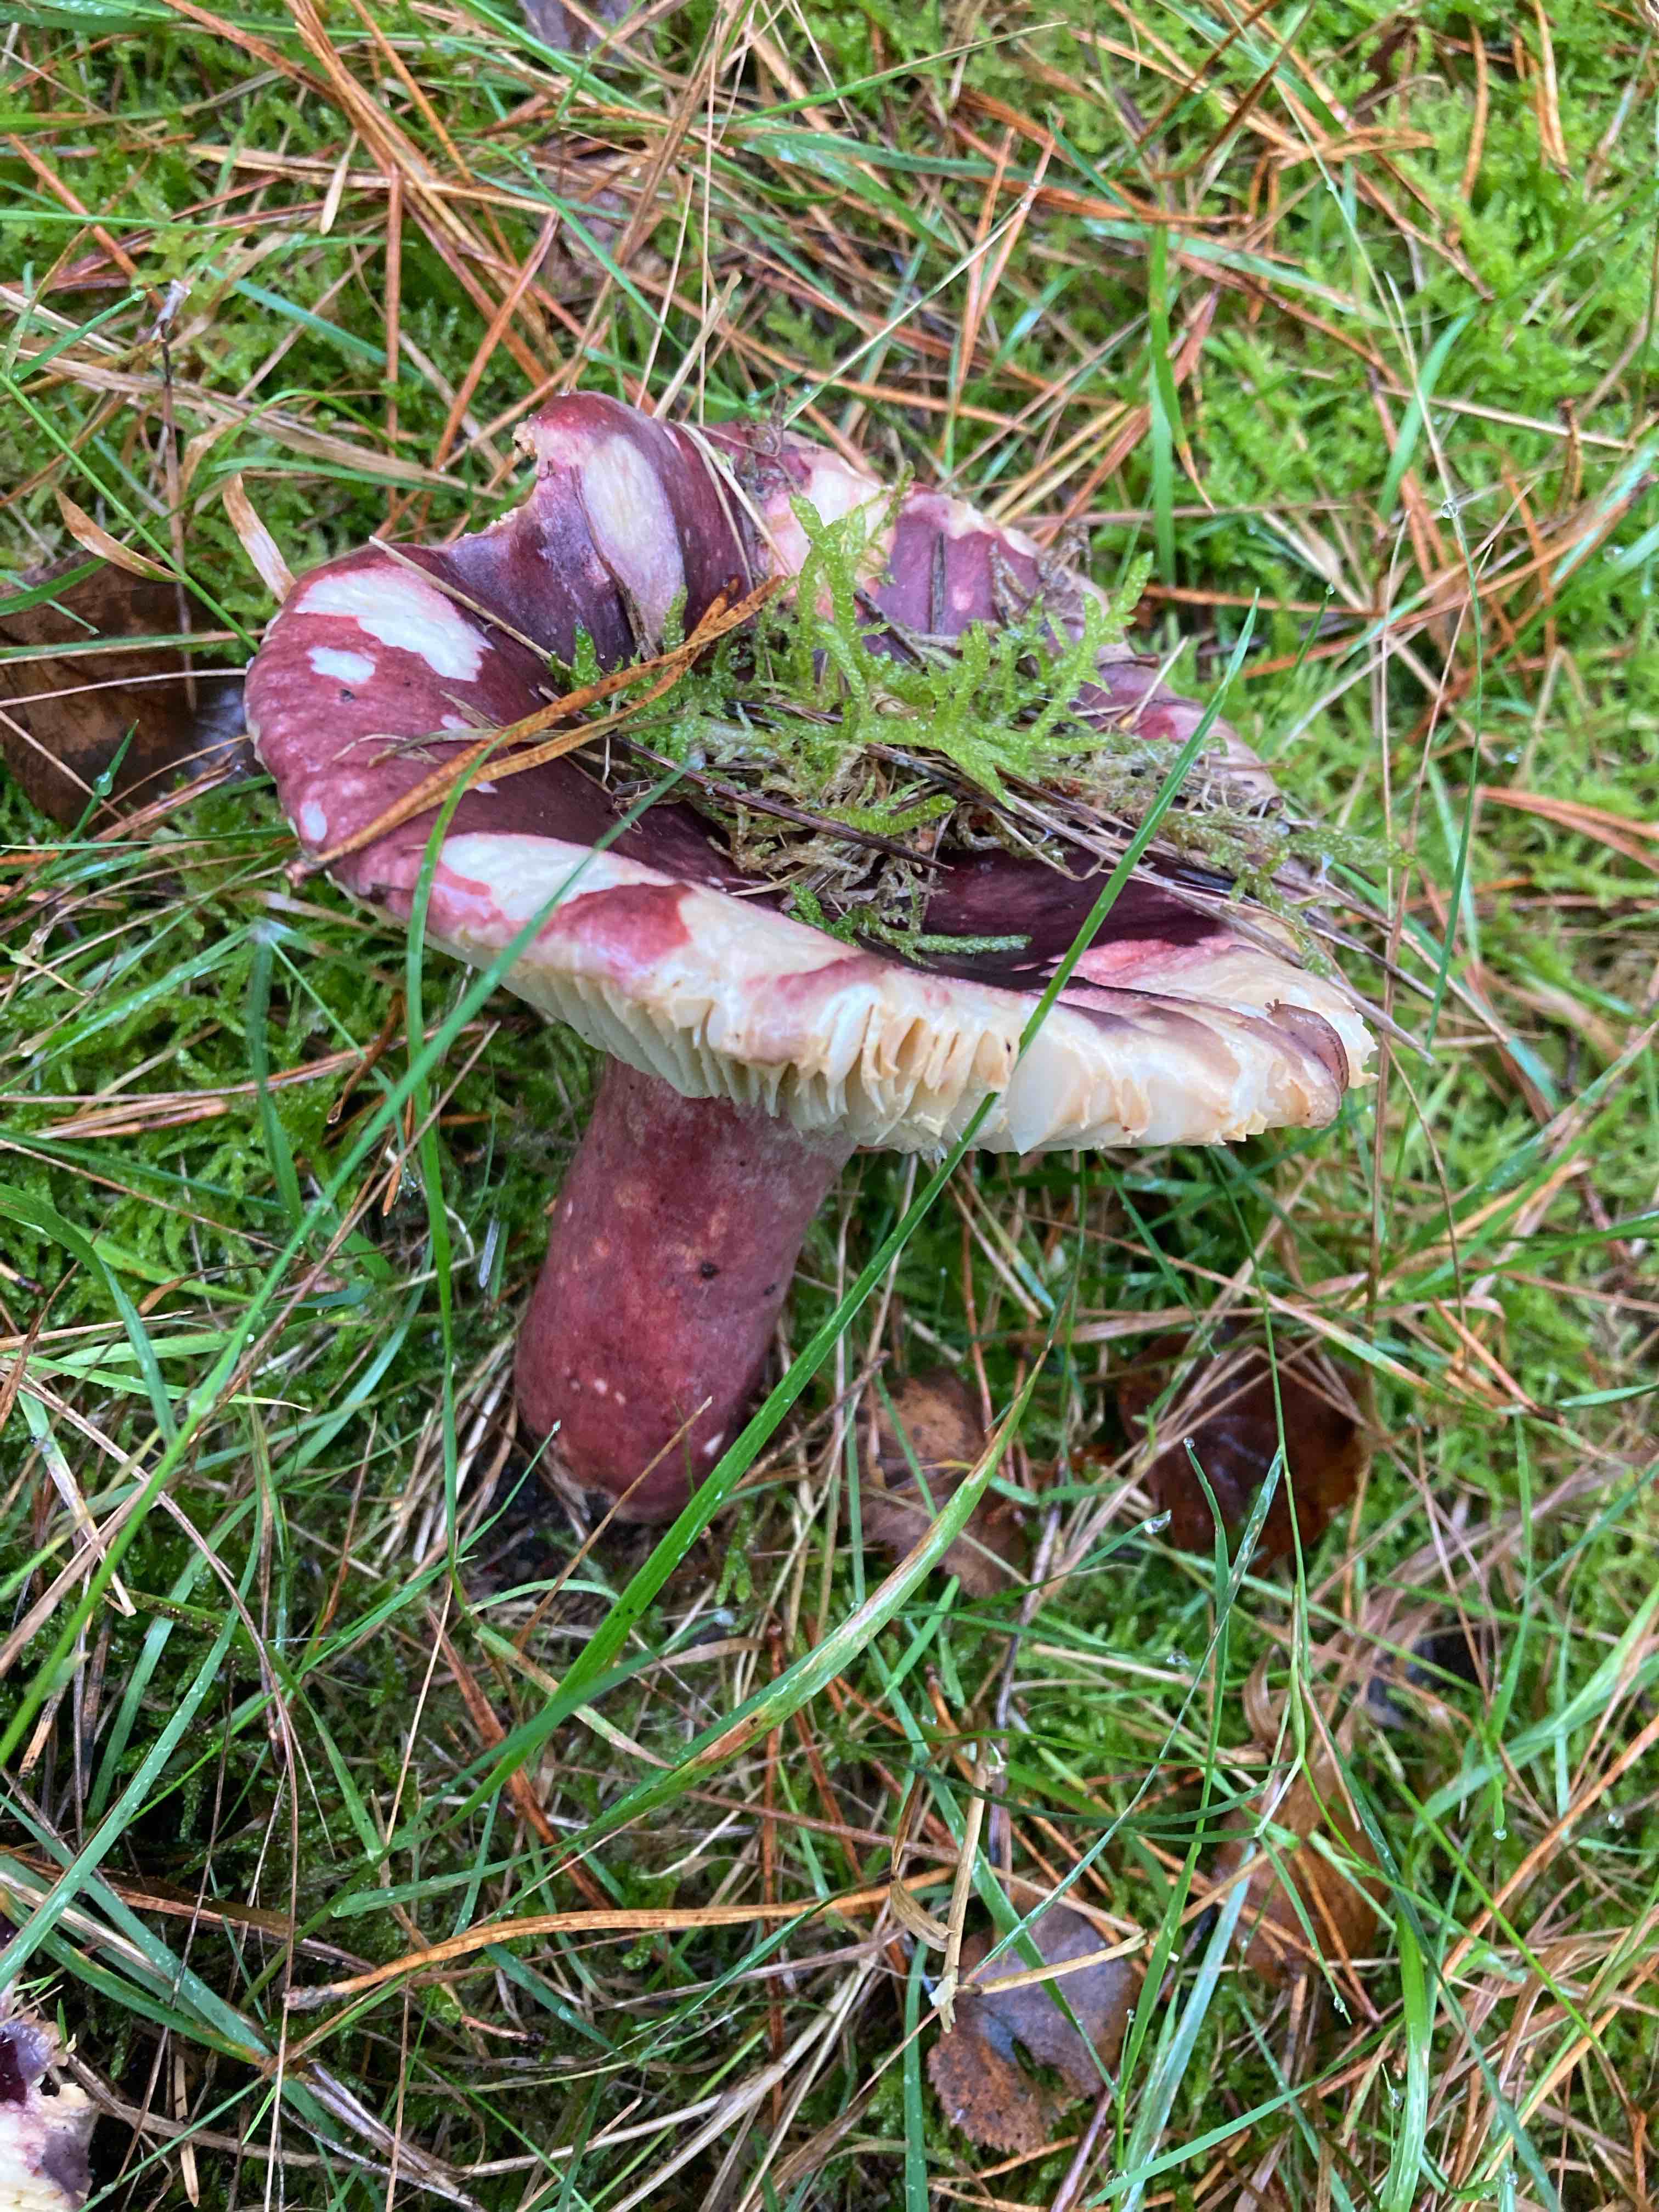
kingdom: Fungi
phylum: Basidiomycota
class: Agaricomycetes
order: Russulales
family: Russulaceae
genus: Russula
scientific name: Russula
